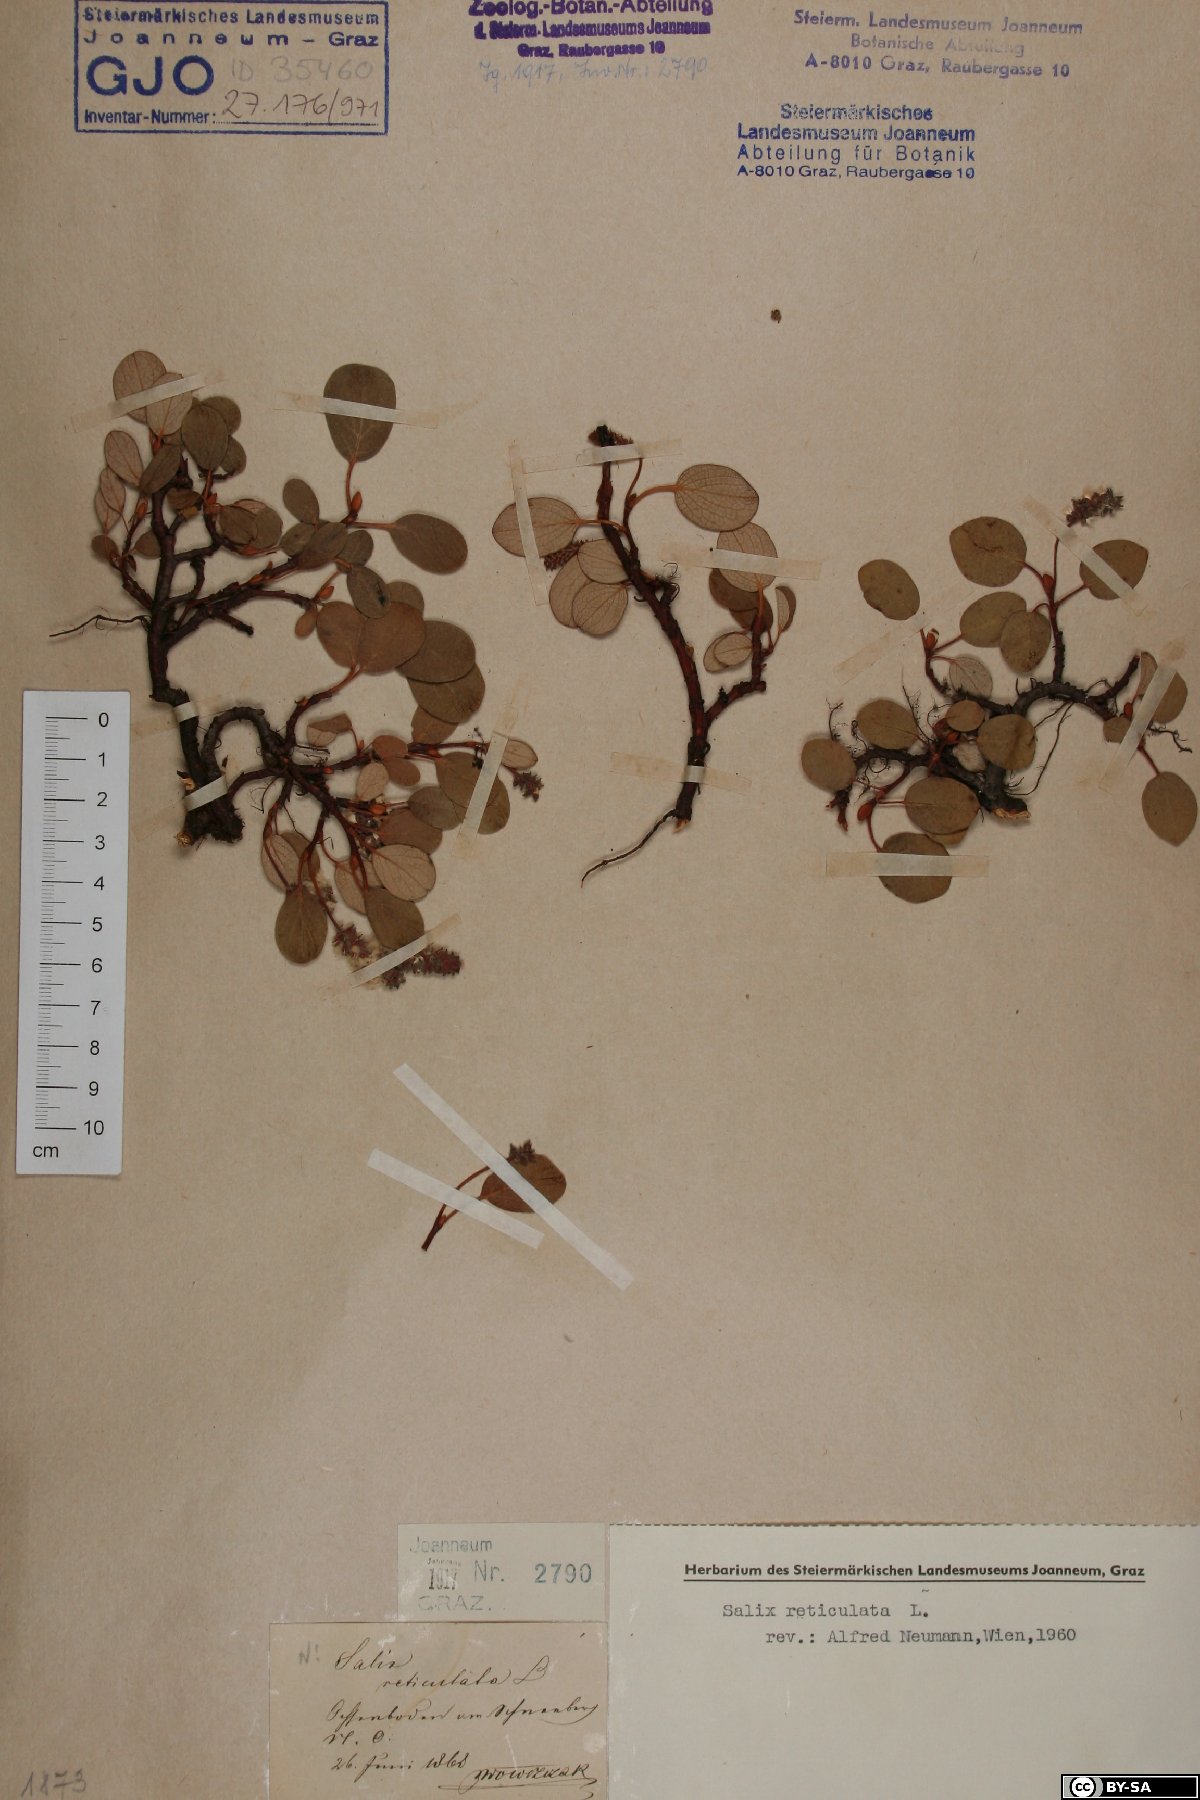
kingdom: Plantae
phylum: Tracheophyta
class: Magnoliopsida
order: Malpighiales
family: Salicaceae
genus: Salix
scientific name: Salix reticulata
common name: Net-leaved willow
